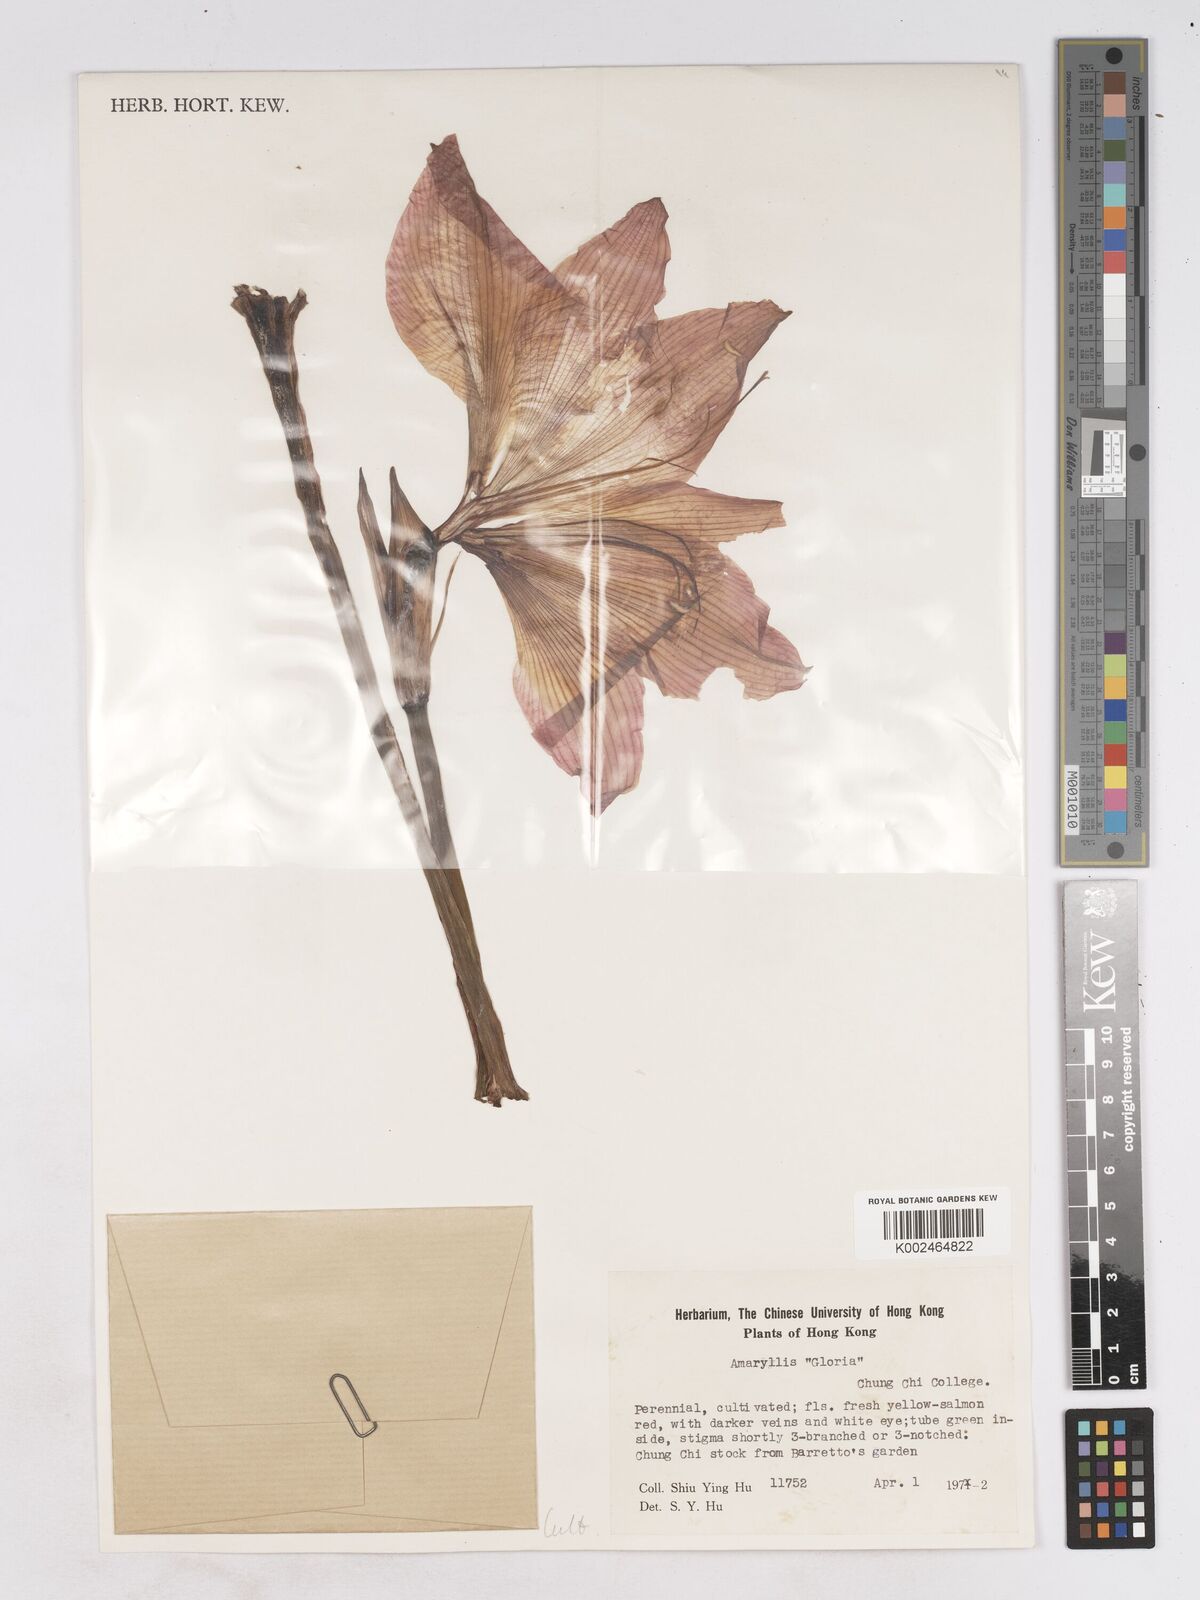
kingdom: Plantae
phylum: Tracheophyta
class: Liliopsida
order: Asparagales
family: Amaryllidaceae
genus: Hippeastrum
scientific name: Hippeastrum
